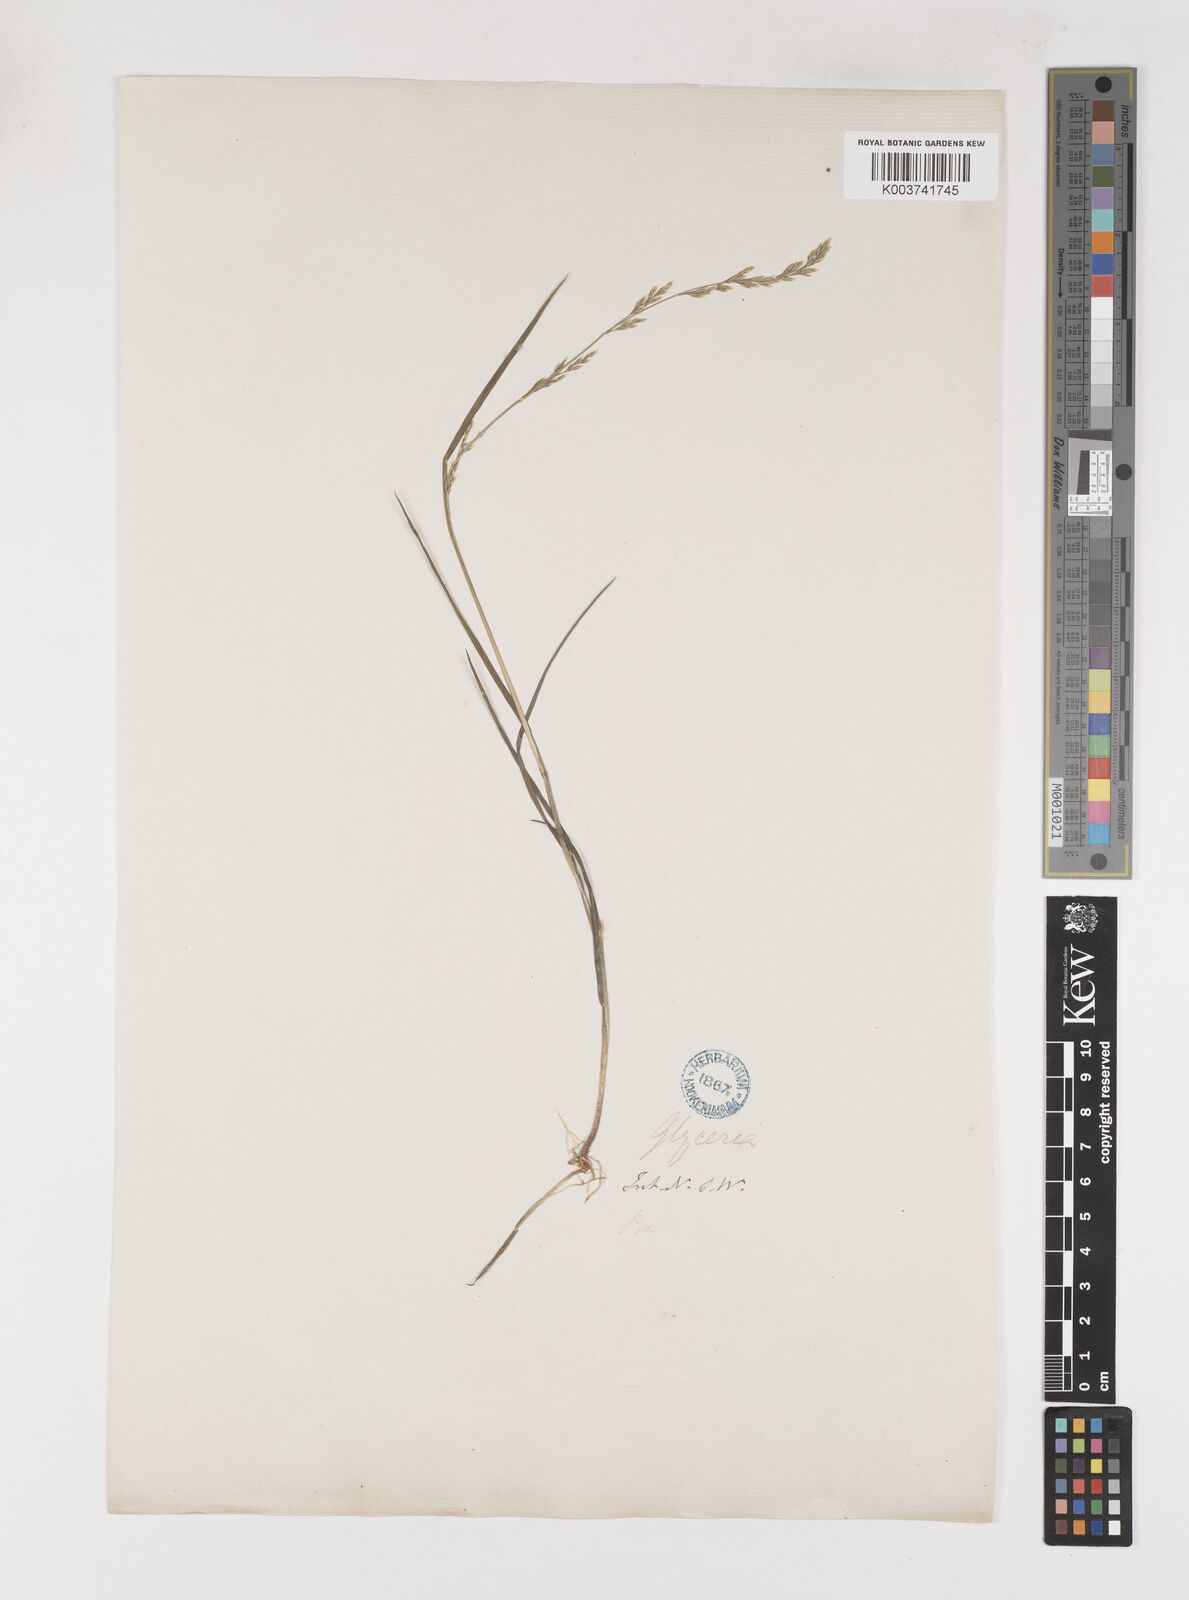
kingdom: Plantae
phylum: Tracheophyta
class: Liliopsida
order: Poales
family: Poaceae
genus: Poa
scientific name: Poa fordeana
